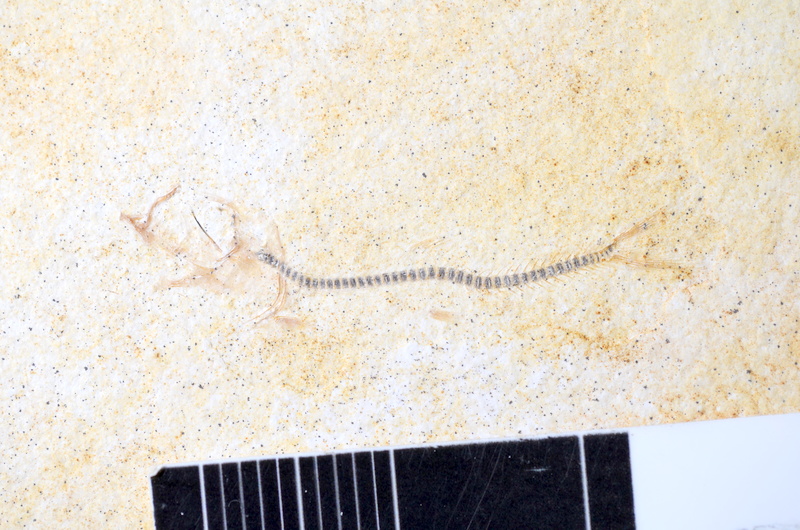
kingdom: Animalia
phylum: Chordata
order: Salmoniformes
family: Orthogonikleithridae
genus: Orthogonikleithrus
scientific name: Orthogonikleithrus hoelli
